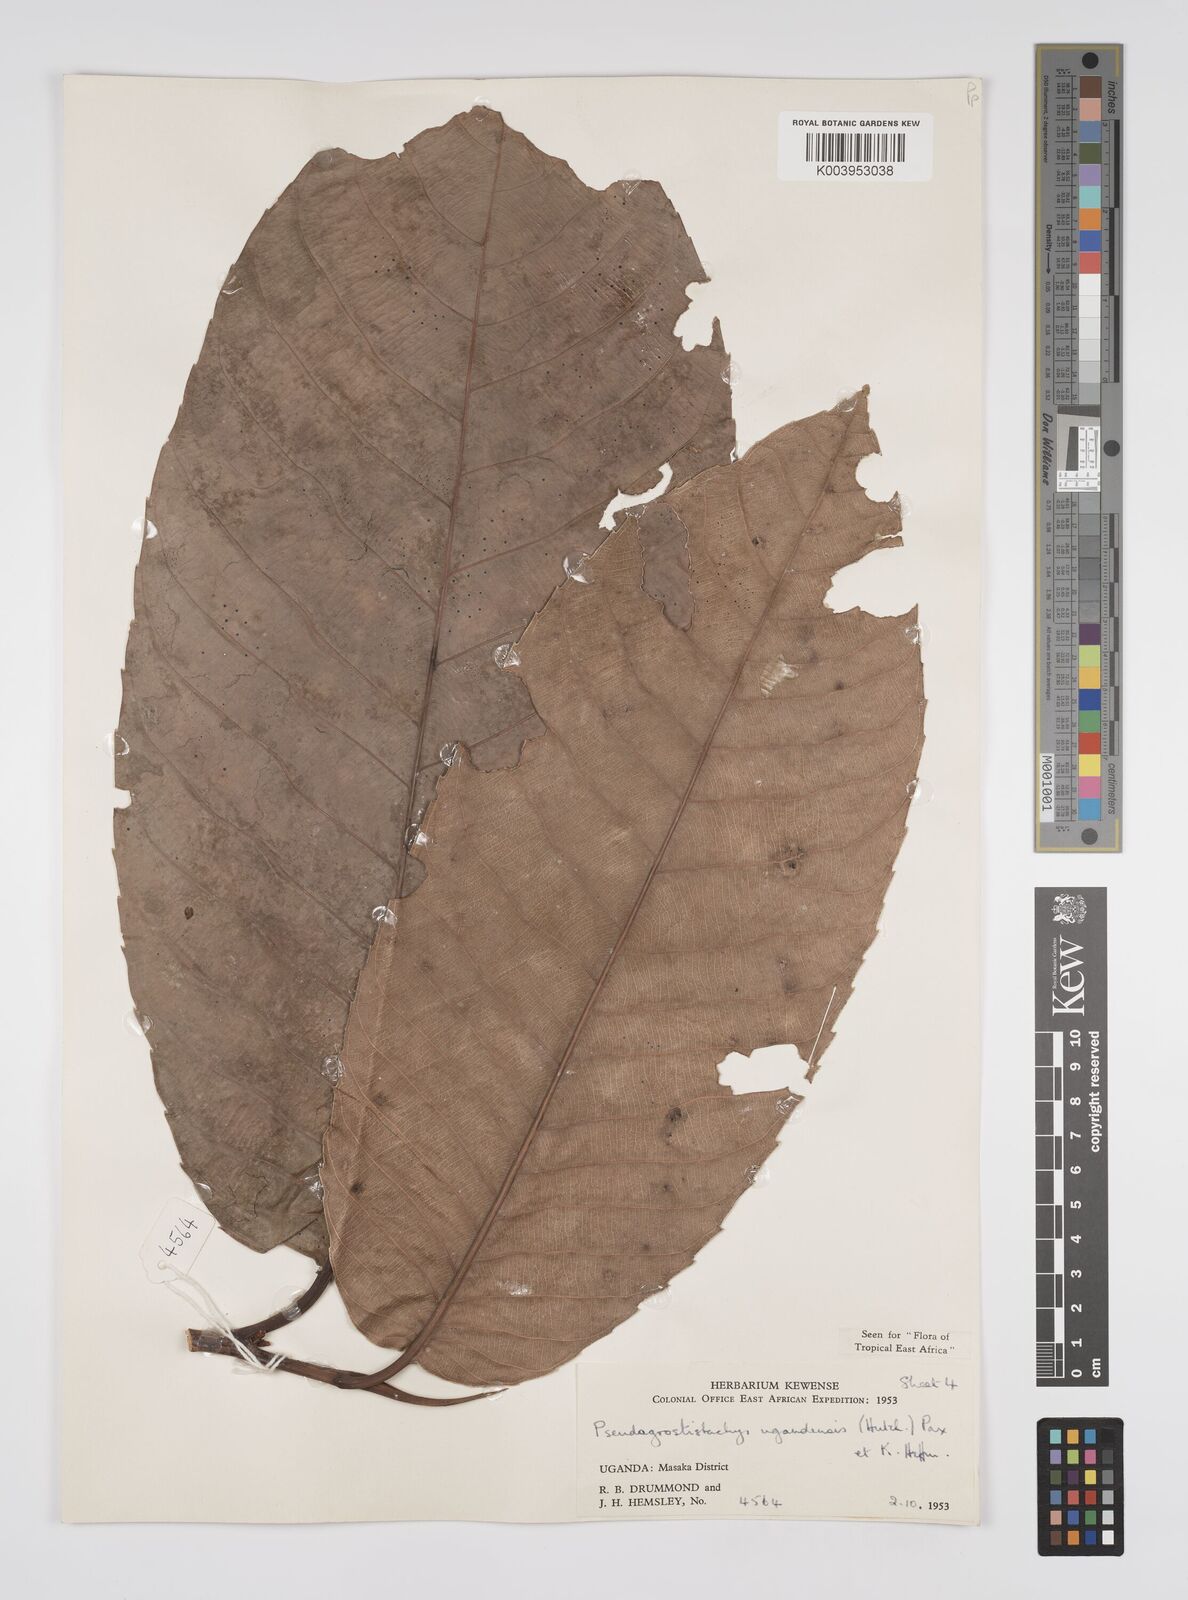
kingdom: Plantae
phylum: Tracheophyta
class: Magnoliopsida
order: Malpighiales
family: Euphorbiaceae
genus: Pseudagrostistachys
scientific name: Pseudagrostistachys ugandensis
